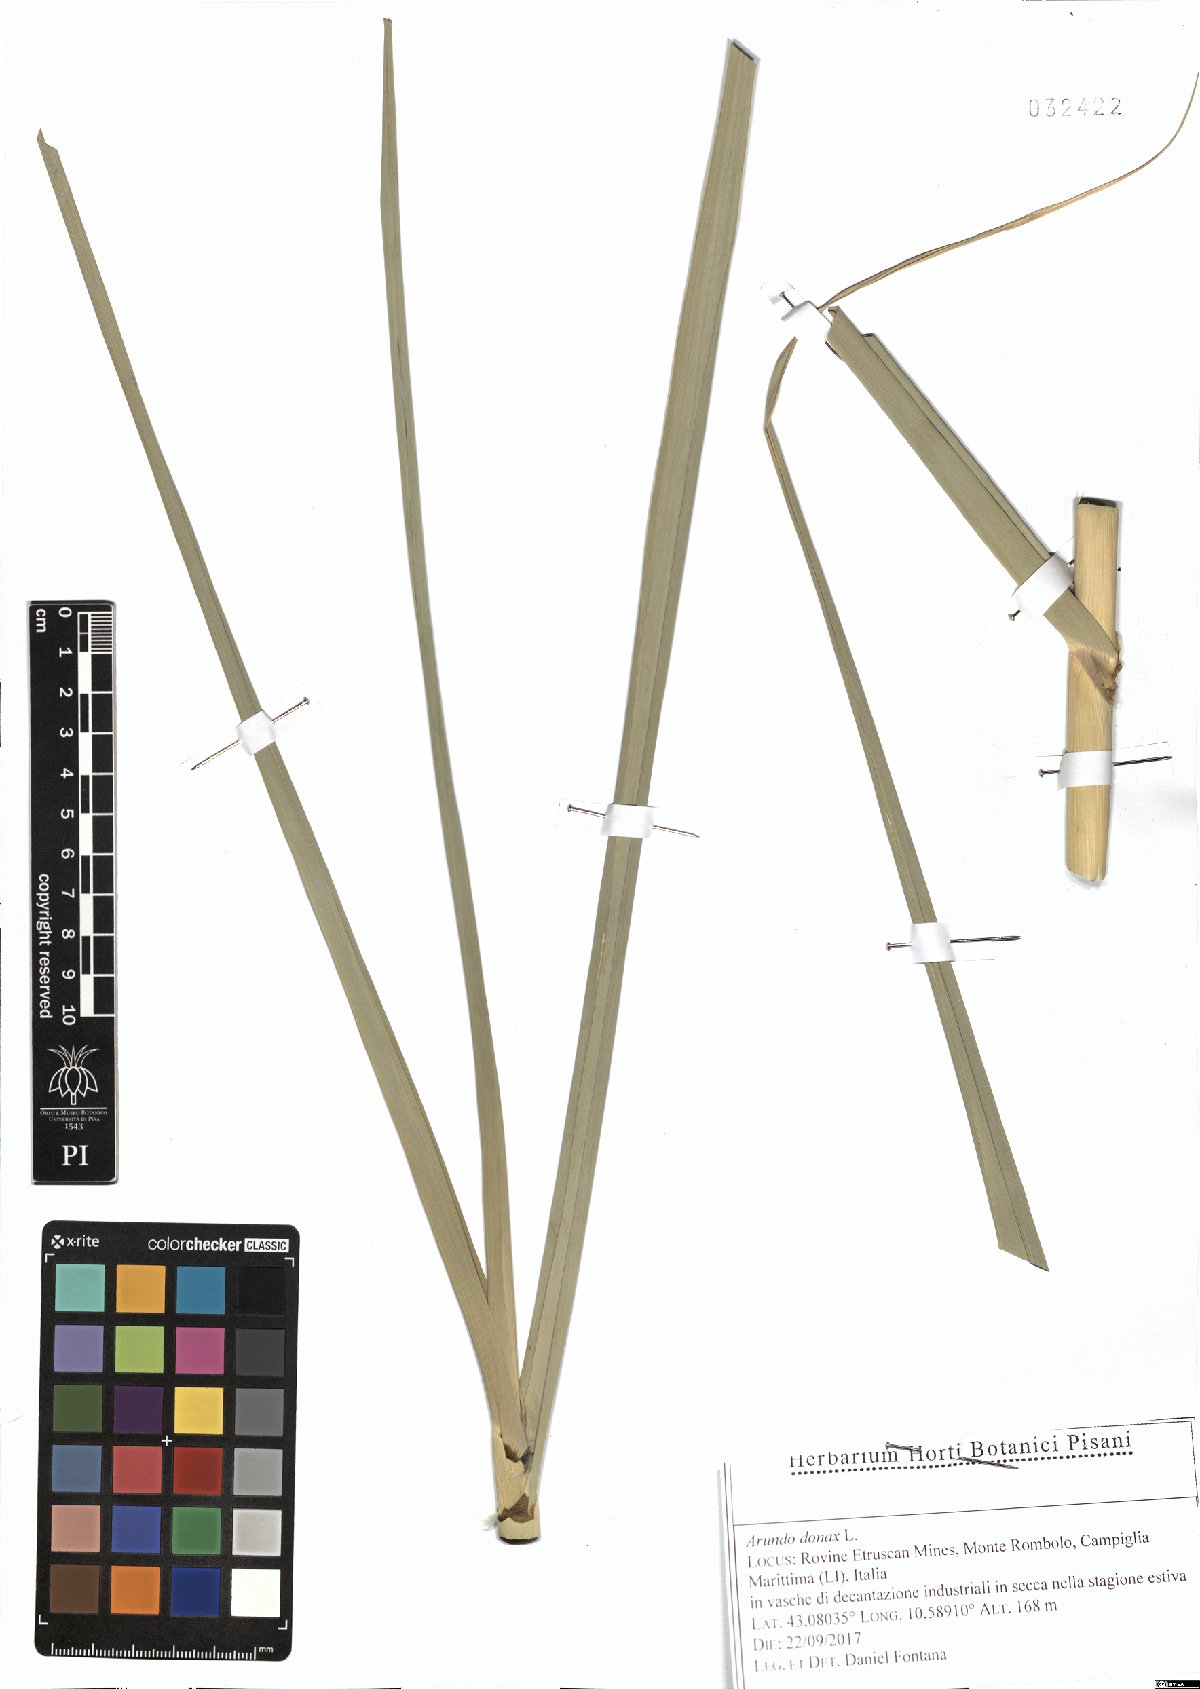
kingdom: Plantae
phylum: Tracheophyta
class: Liliopsida
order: Poales
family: Poaceae
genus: Arundo
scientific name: Arundo donax
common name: Giant reed
